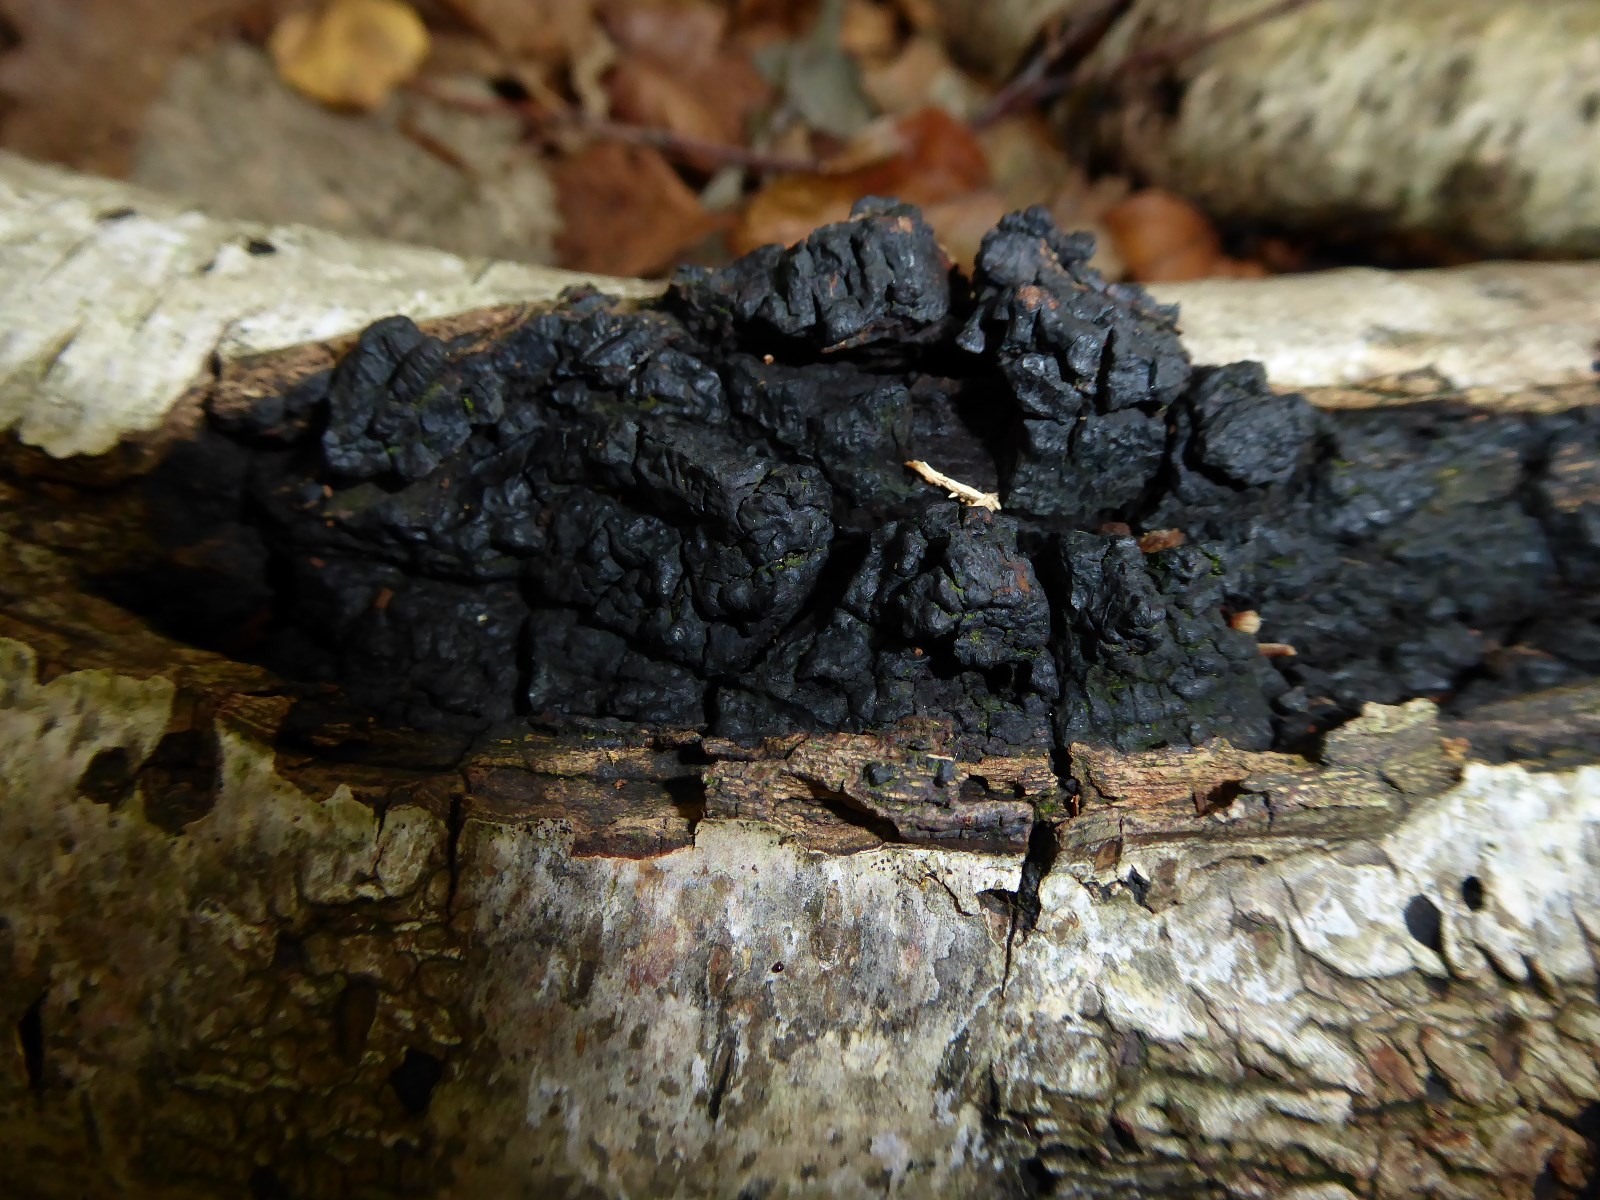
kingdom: Fungi
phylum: Basidiomycota
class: Agaricomycetes
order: Hymenochaetales
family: Hymenochaetaceae
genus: Inonotus
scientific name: Inonotus obliquus
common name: birke-spejlporesvamp
